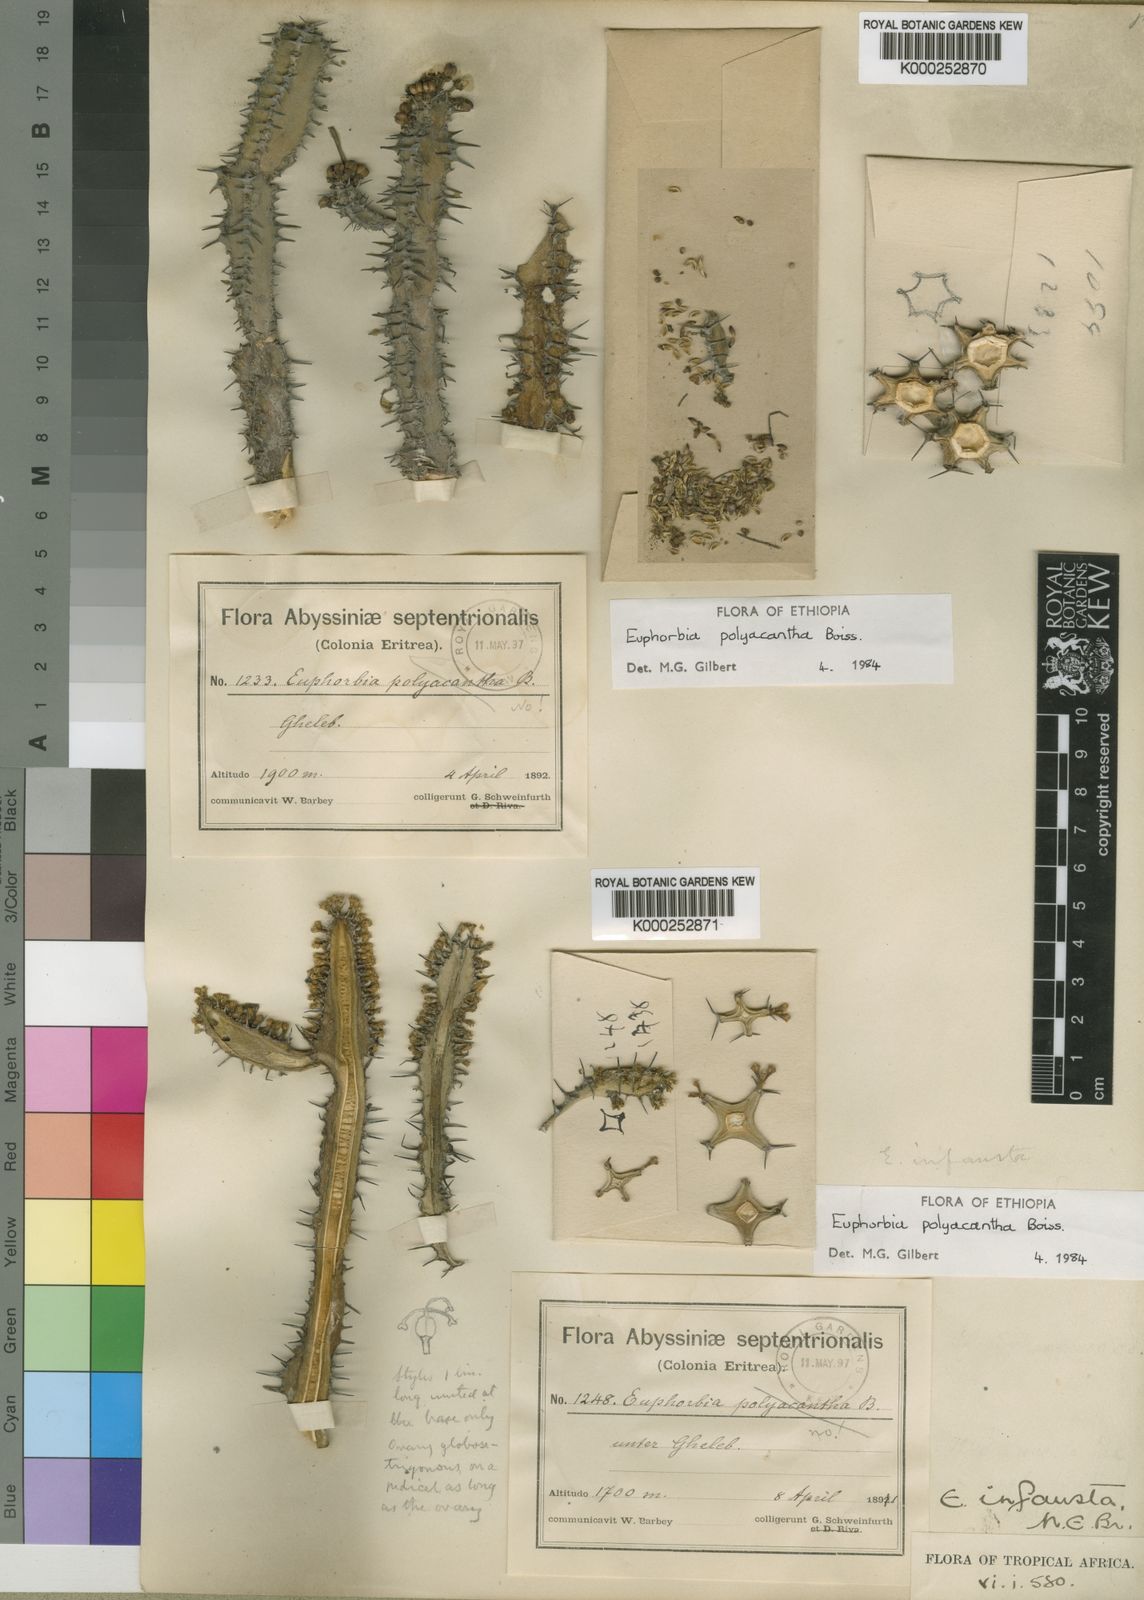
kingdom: Plantae
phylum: Tracheophyta
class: Magnoliopsida
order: Malpighiales
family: Euphorbiaceae
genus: Euphorbia
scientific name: Euphorbia polyacantha
